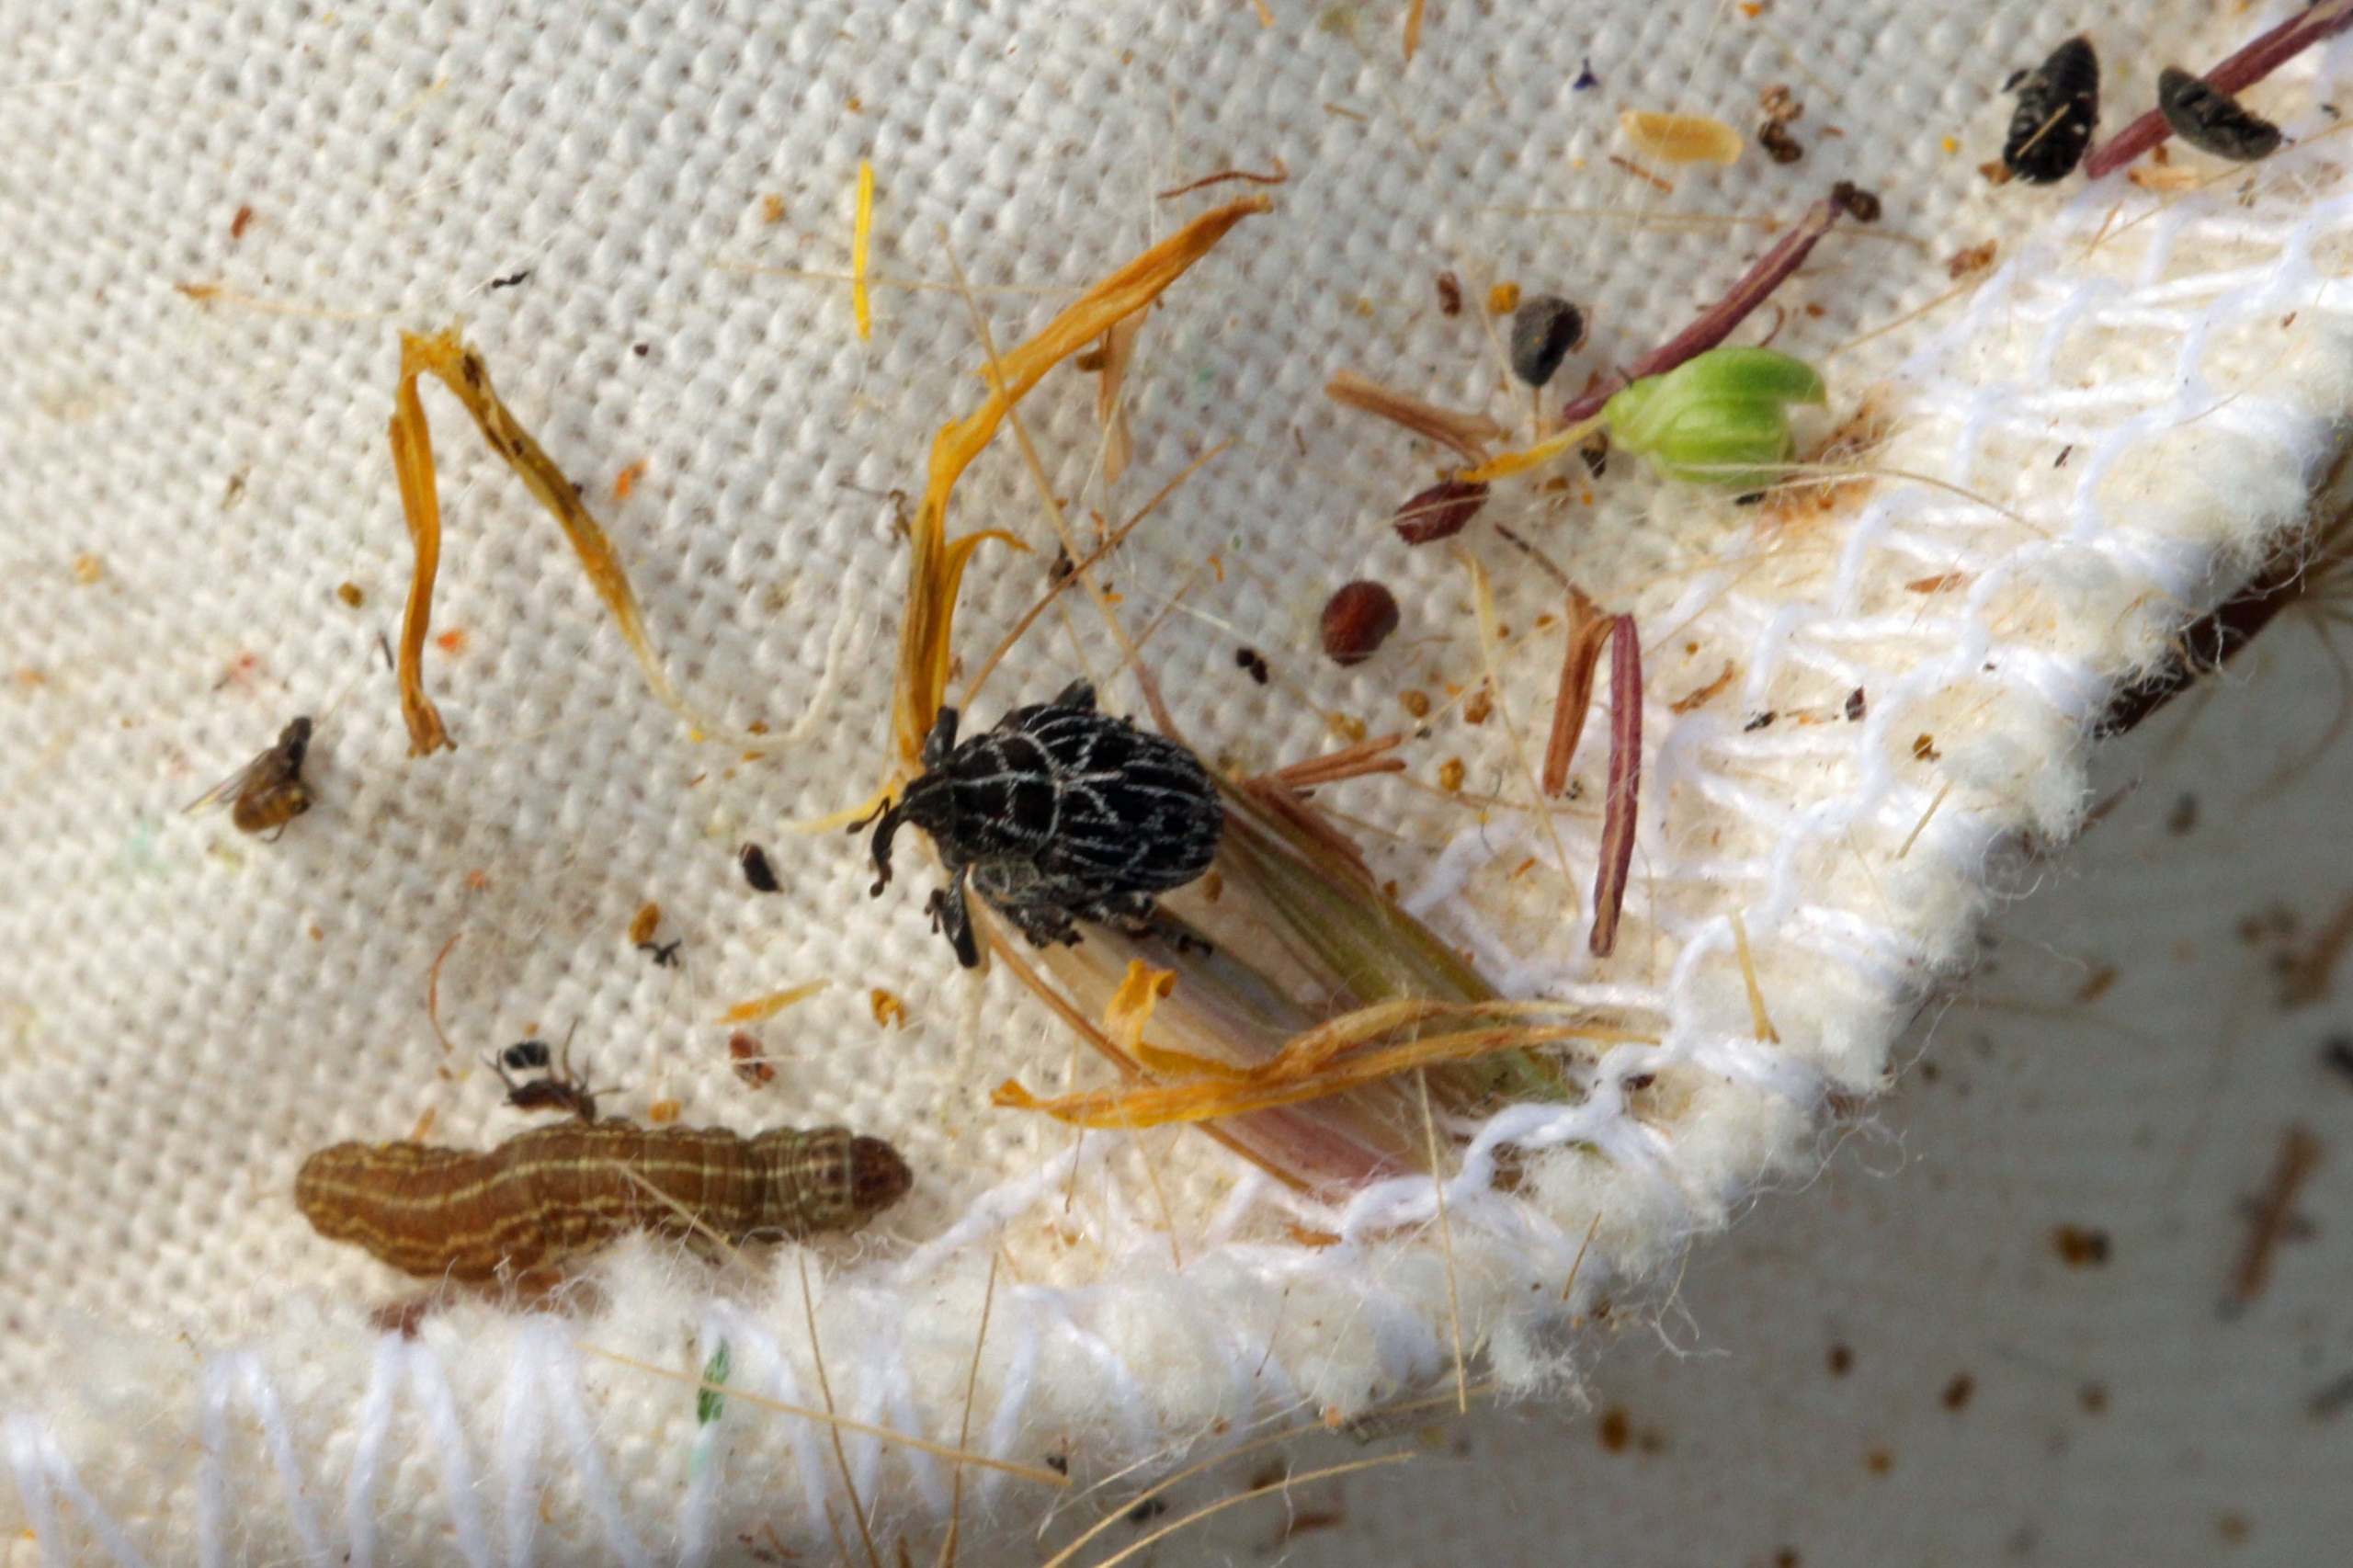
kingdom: Animalia
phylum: Arthropoda
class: Insecta
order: Coleoptera
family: Curculionidae
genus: Mogulones
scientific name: Mogulones geographicus
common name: Slangehovedsnudebille
